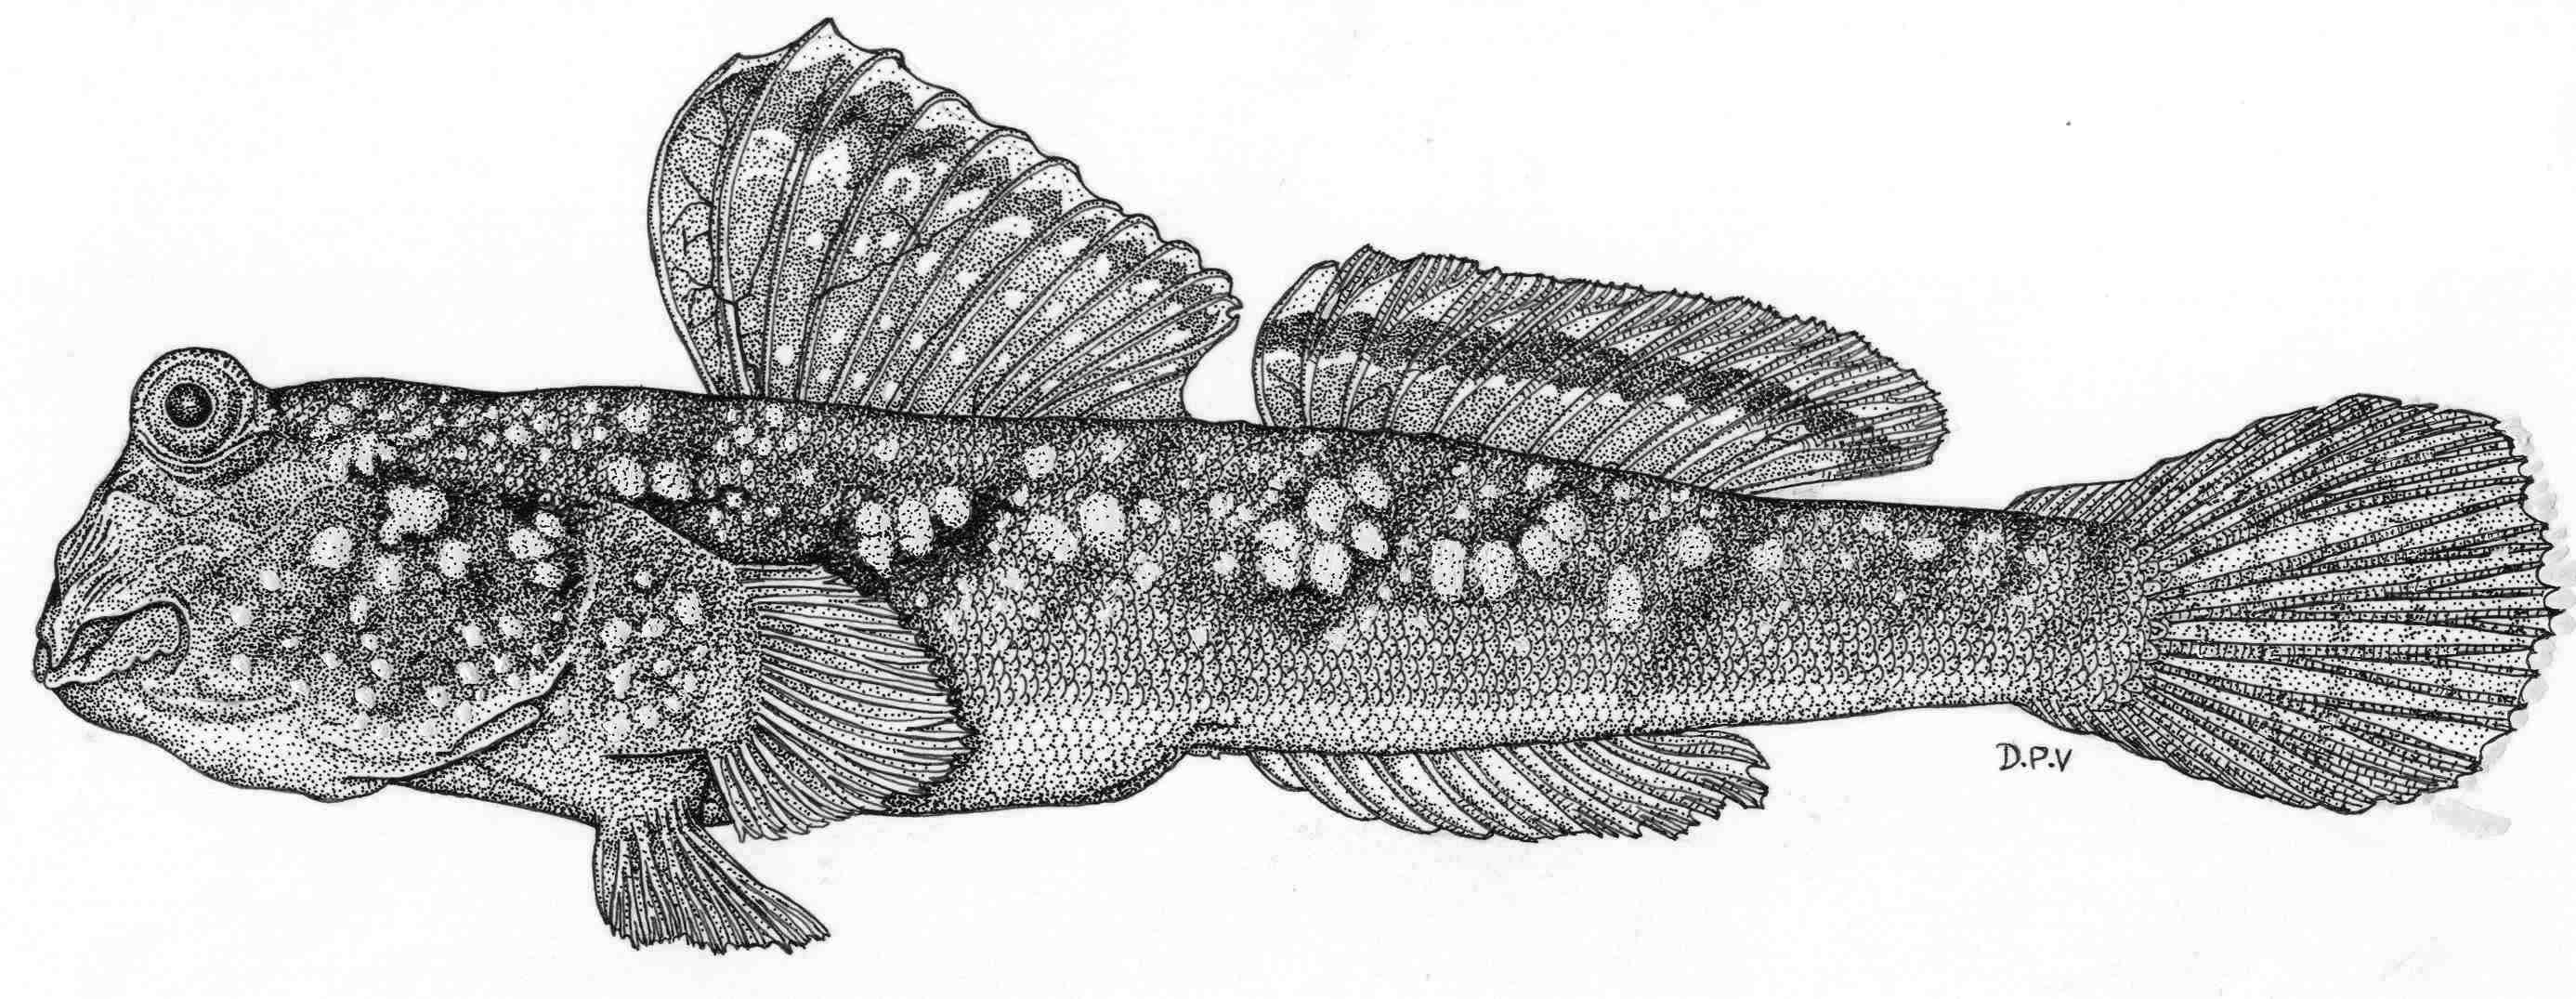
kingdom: Animalia
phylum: Chordata
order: Perciformes
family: Gobiidae
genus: Periophthalmus
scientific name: Periophthalmus argentilineatus
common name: Barred mudskipper
